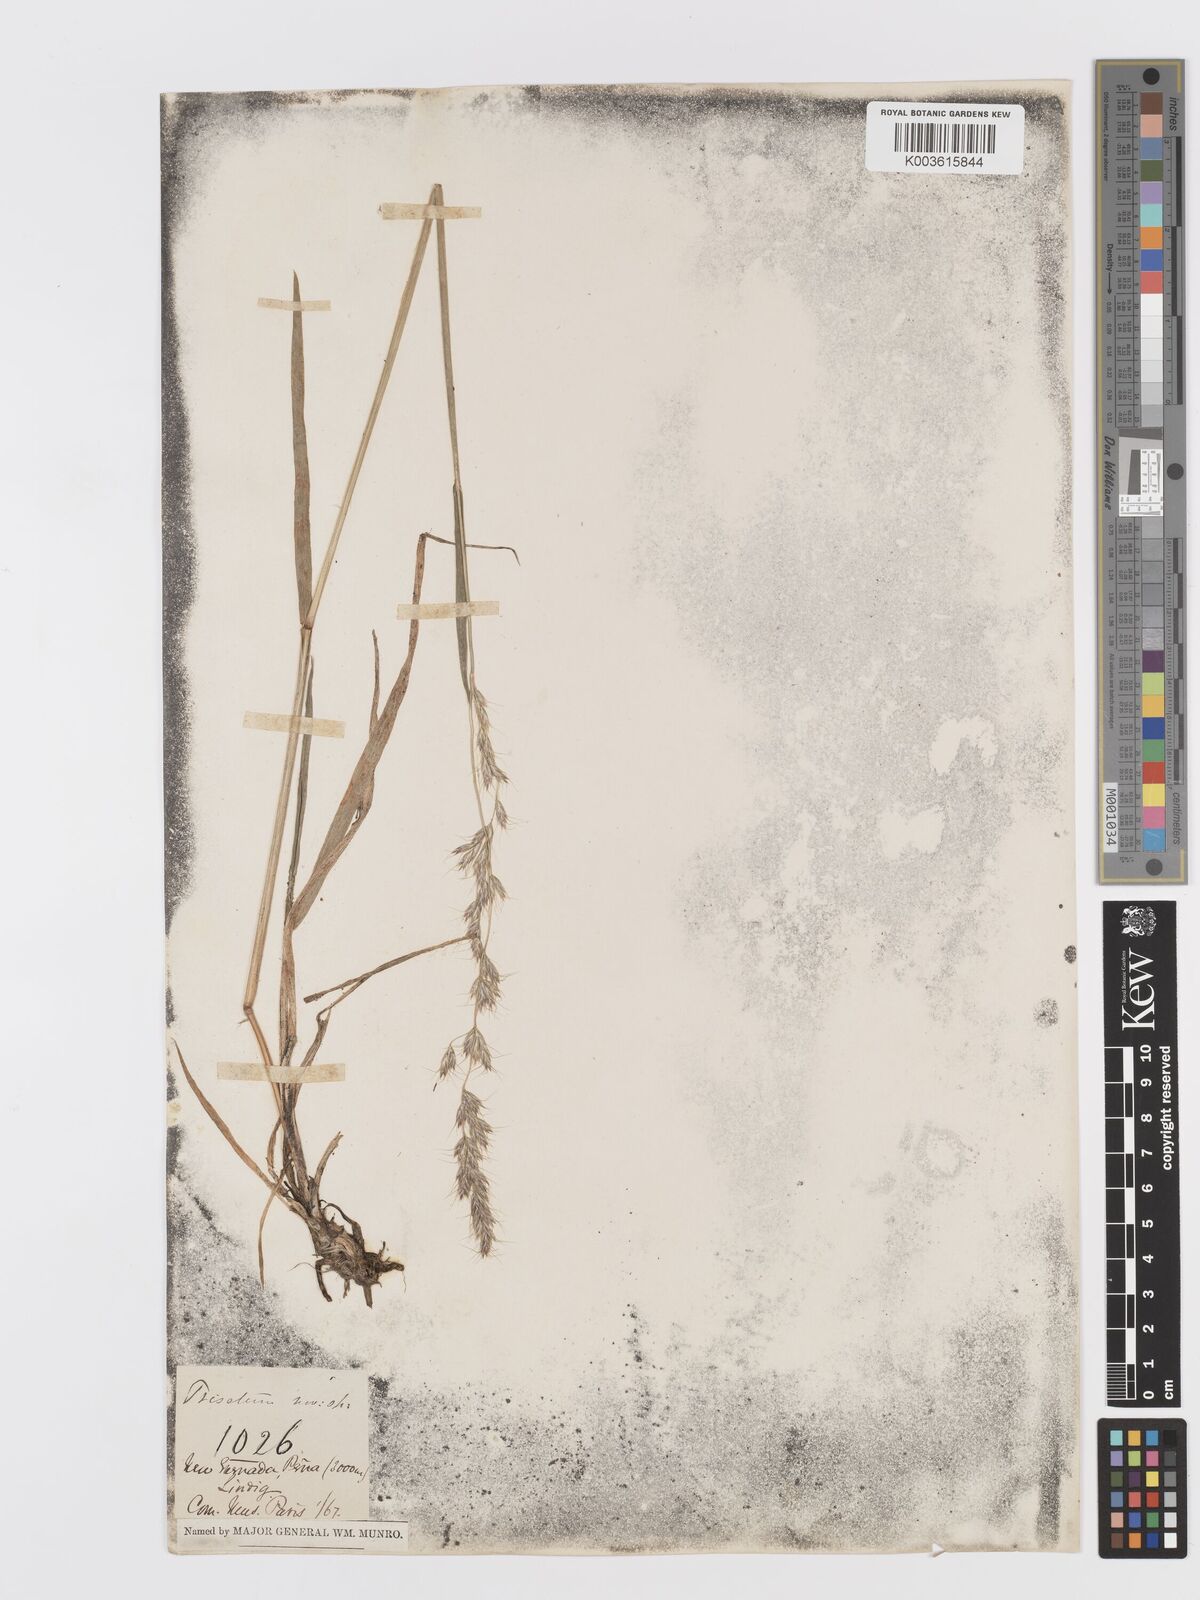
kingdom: Plantae
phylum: Tracheophyta
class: Liliopsida
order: Poales
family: Poaceae
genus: Peyritschia
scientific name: Peyritschia irazuensis
